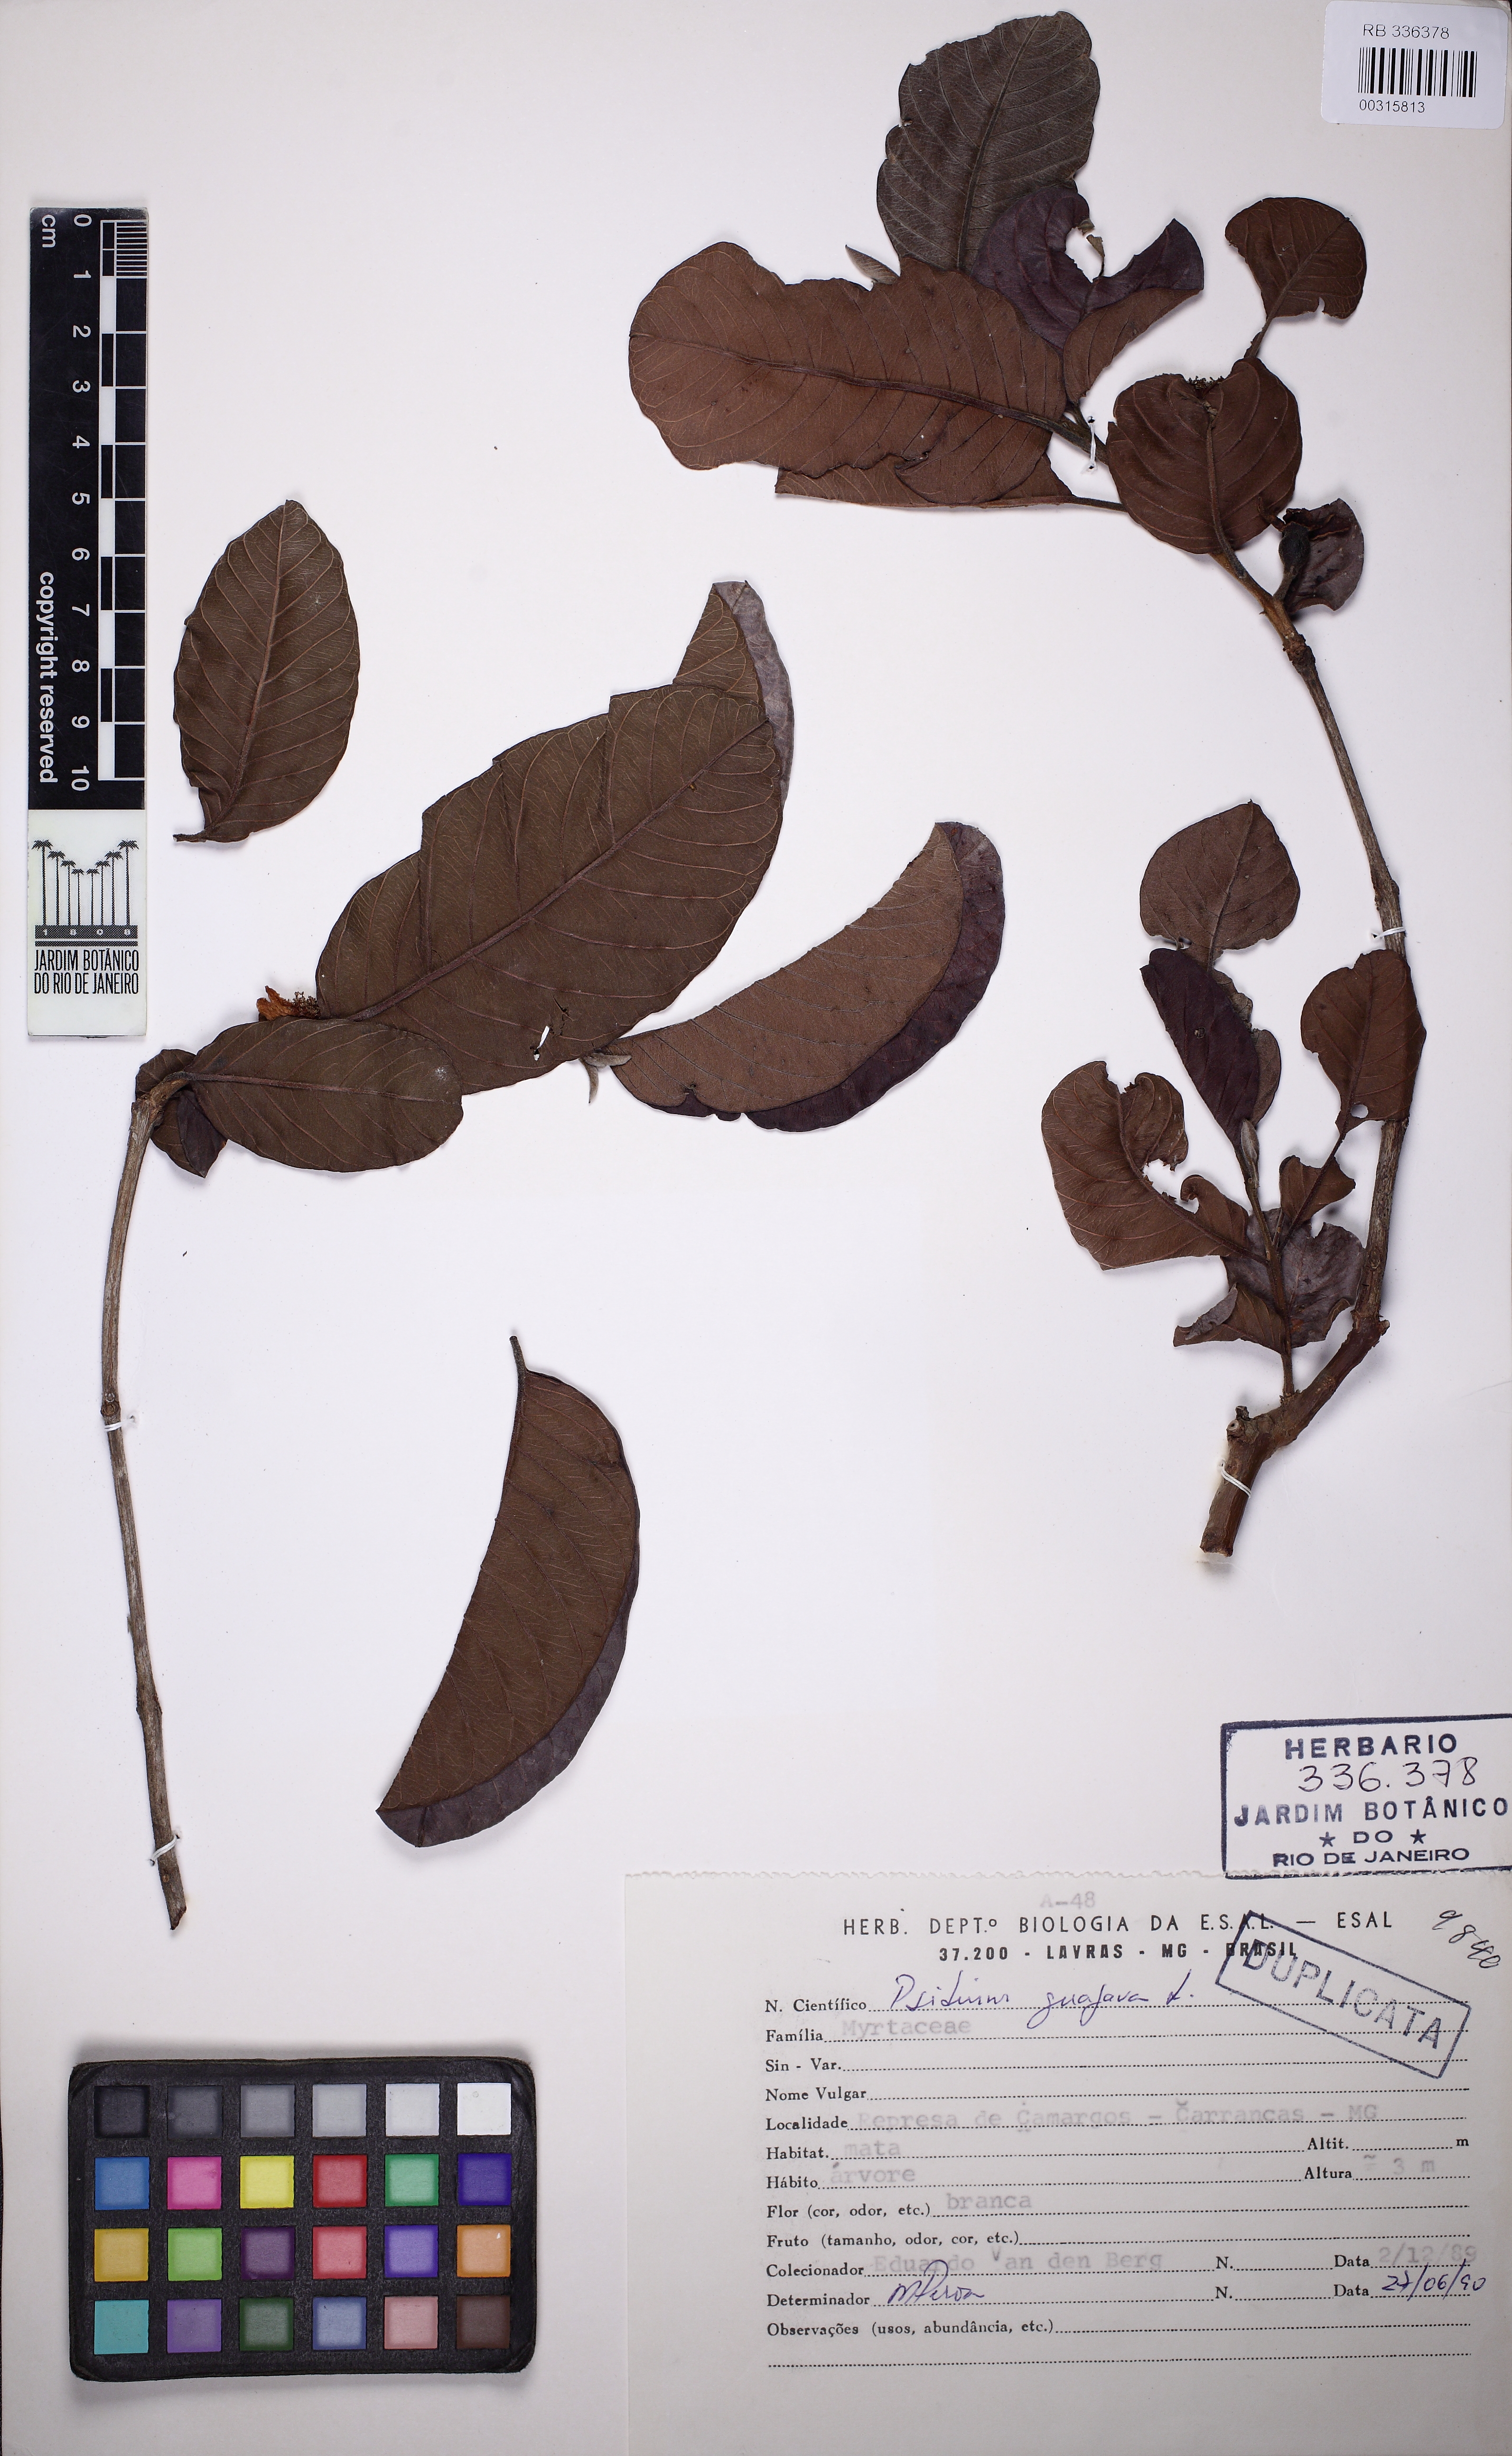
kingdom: Plantae
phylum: Tracheophyta
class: Magnoliopsida
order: Myrtales
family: Myrtaceae
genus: Psidium
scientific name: Psidium guajava
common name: Guava
